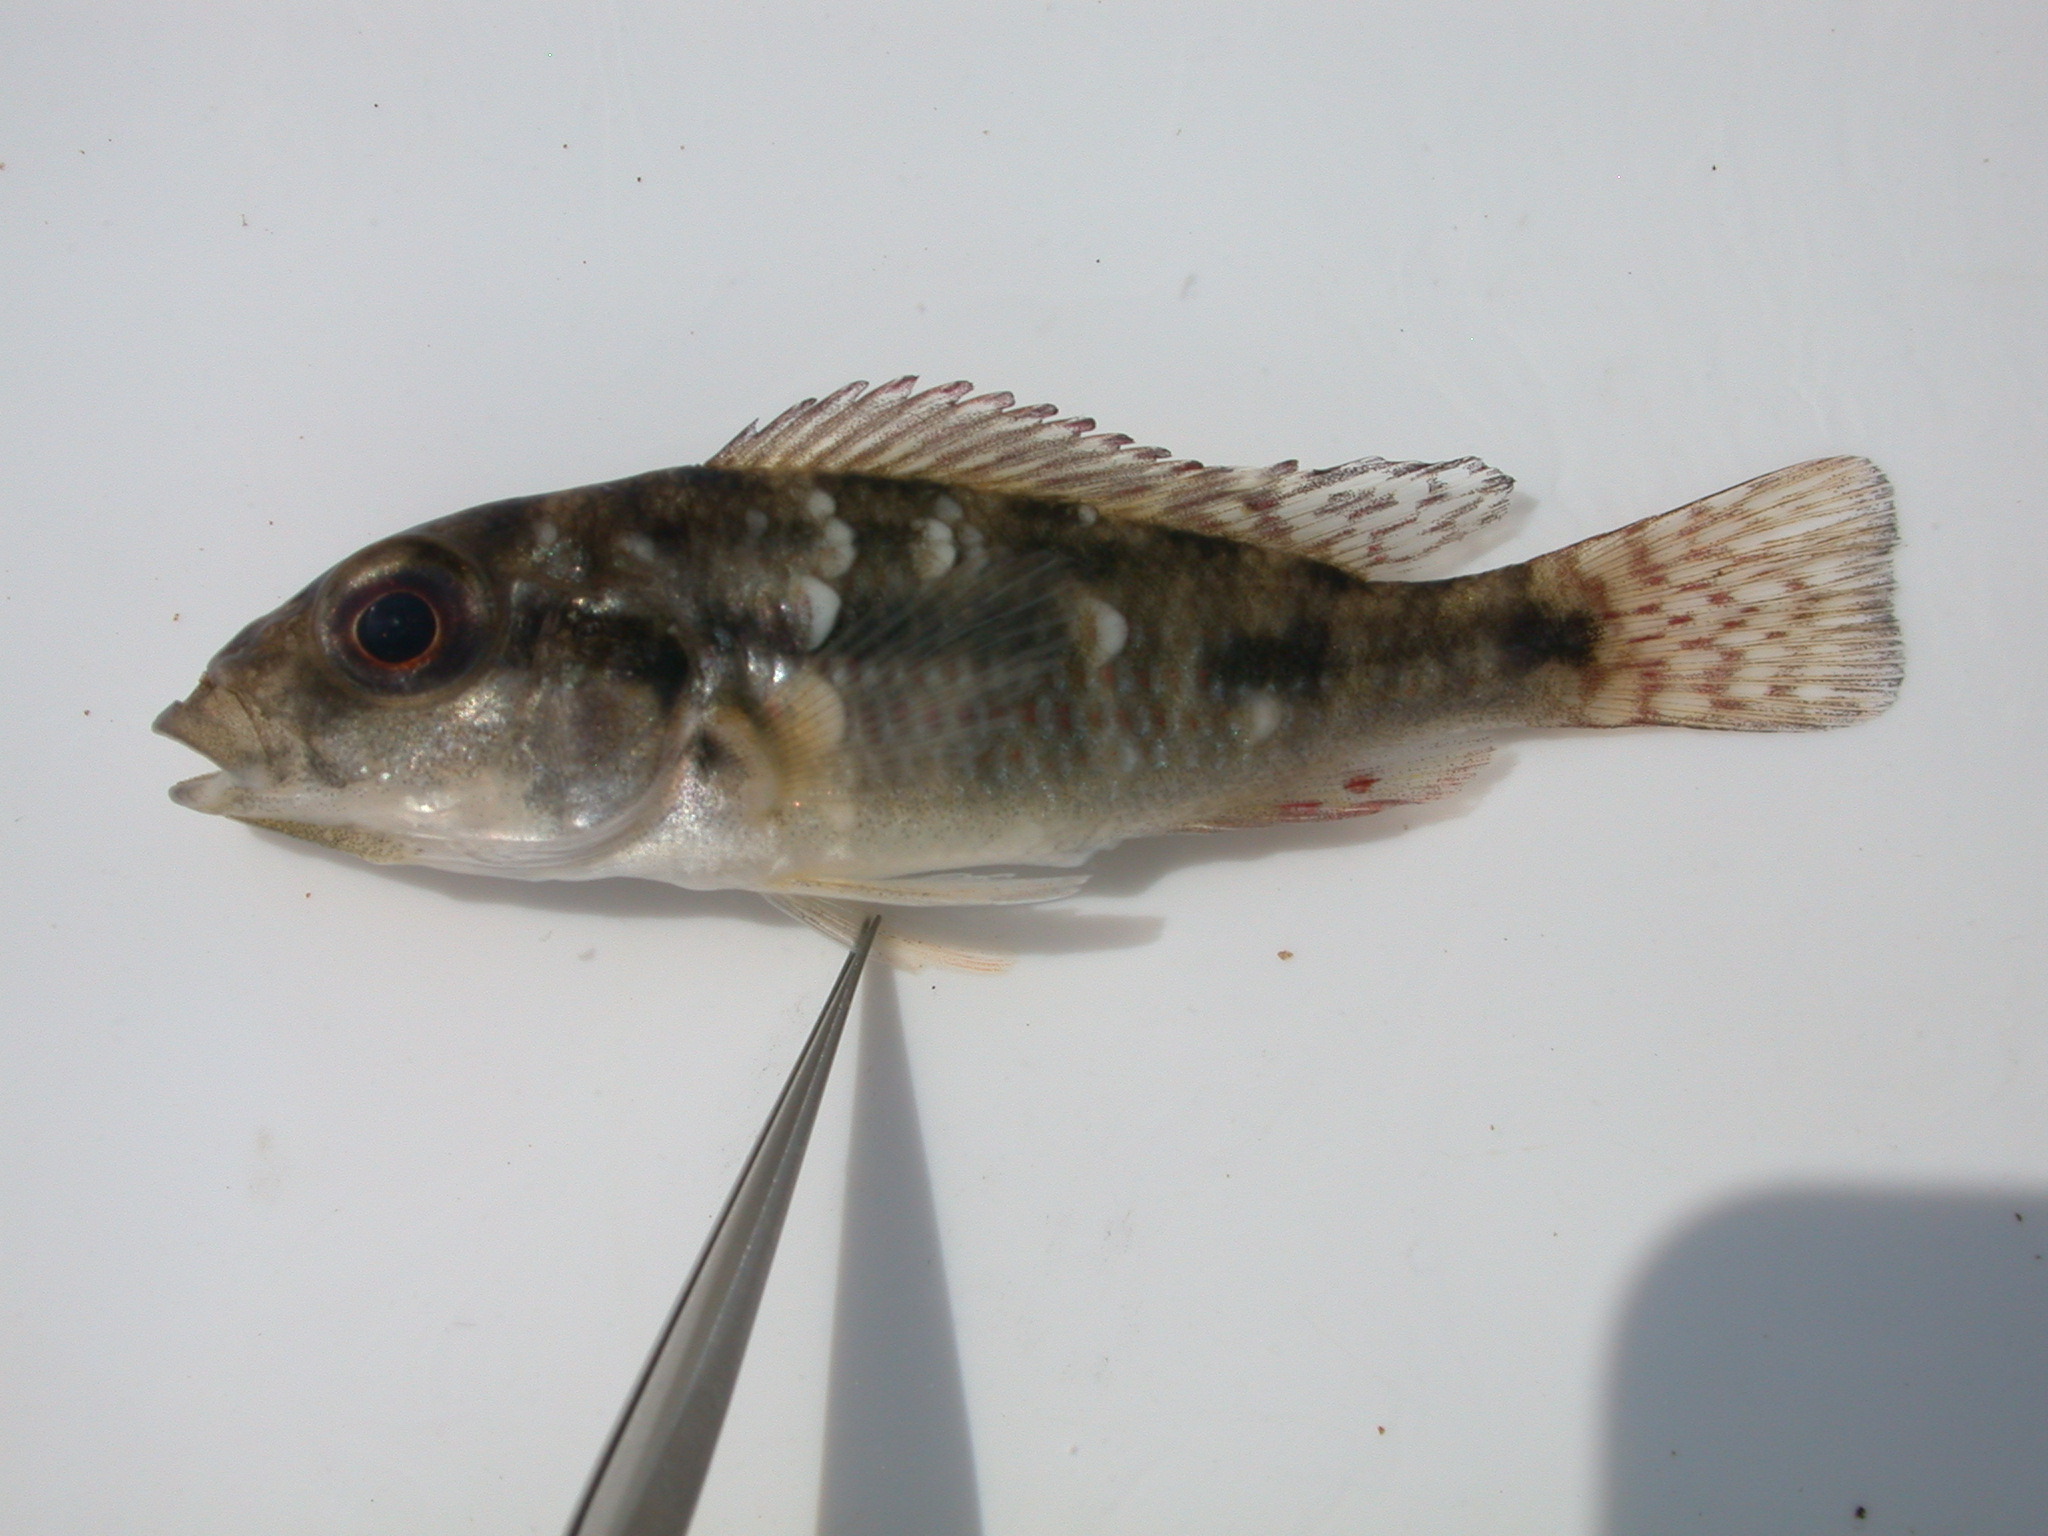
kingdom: Animalia
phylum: Chordata
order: Perciformes
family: Cichlidae
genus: Pharyngochromis
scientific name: Pharyngochromis acuticeps
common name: Zambezi happy
